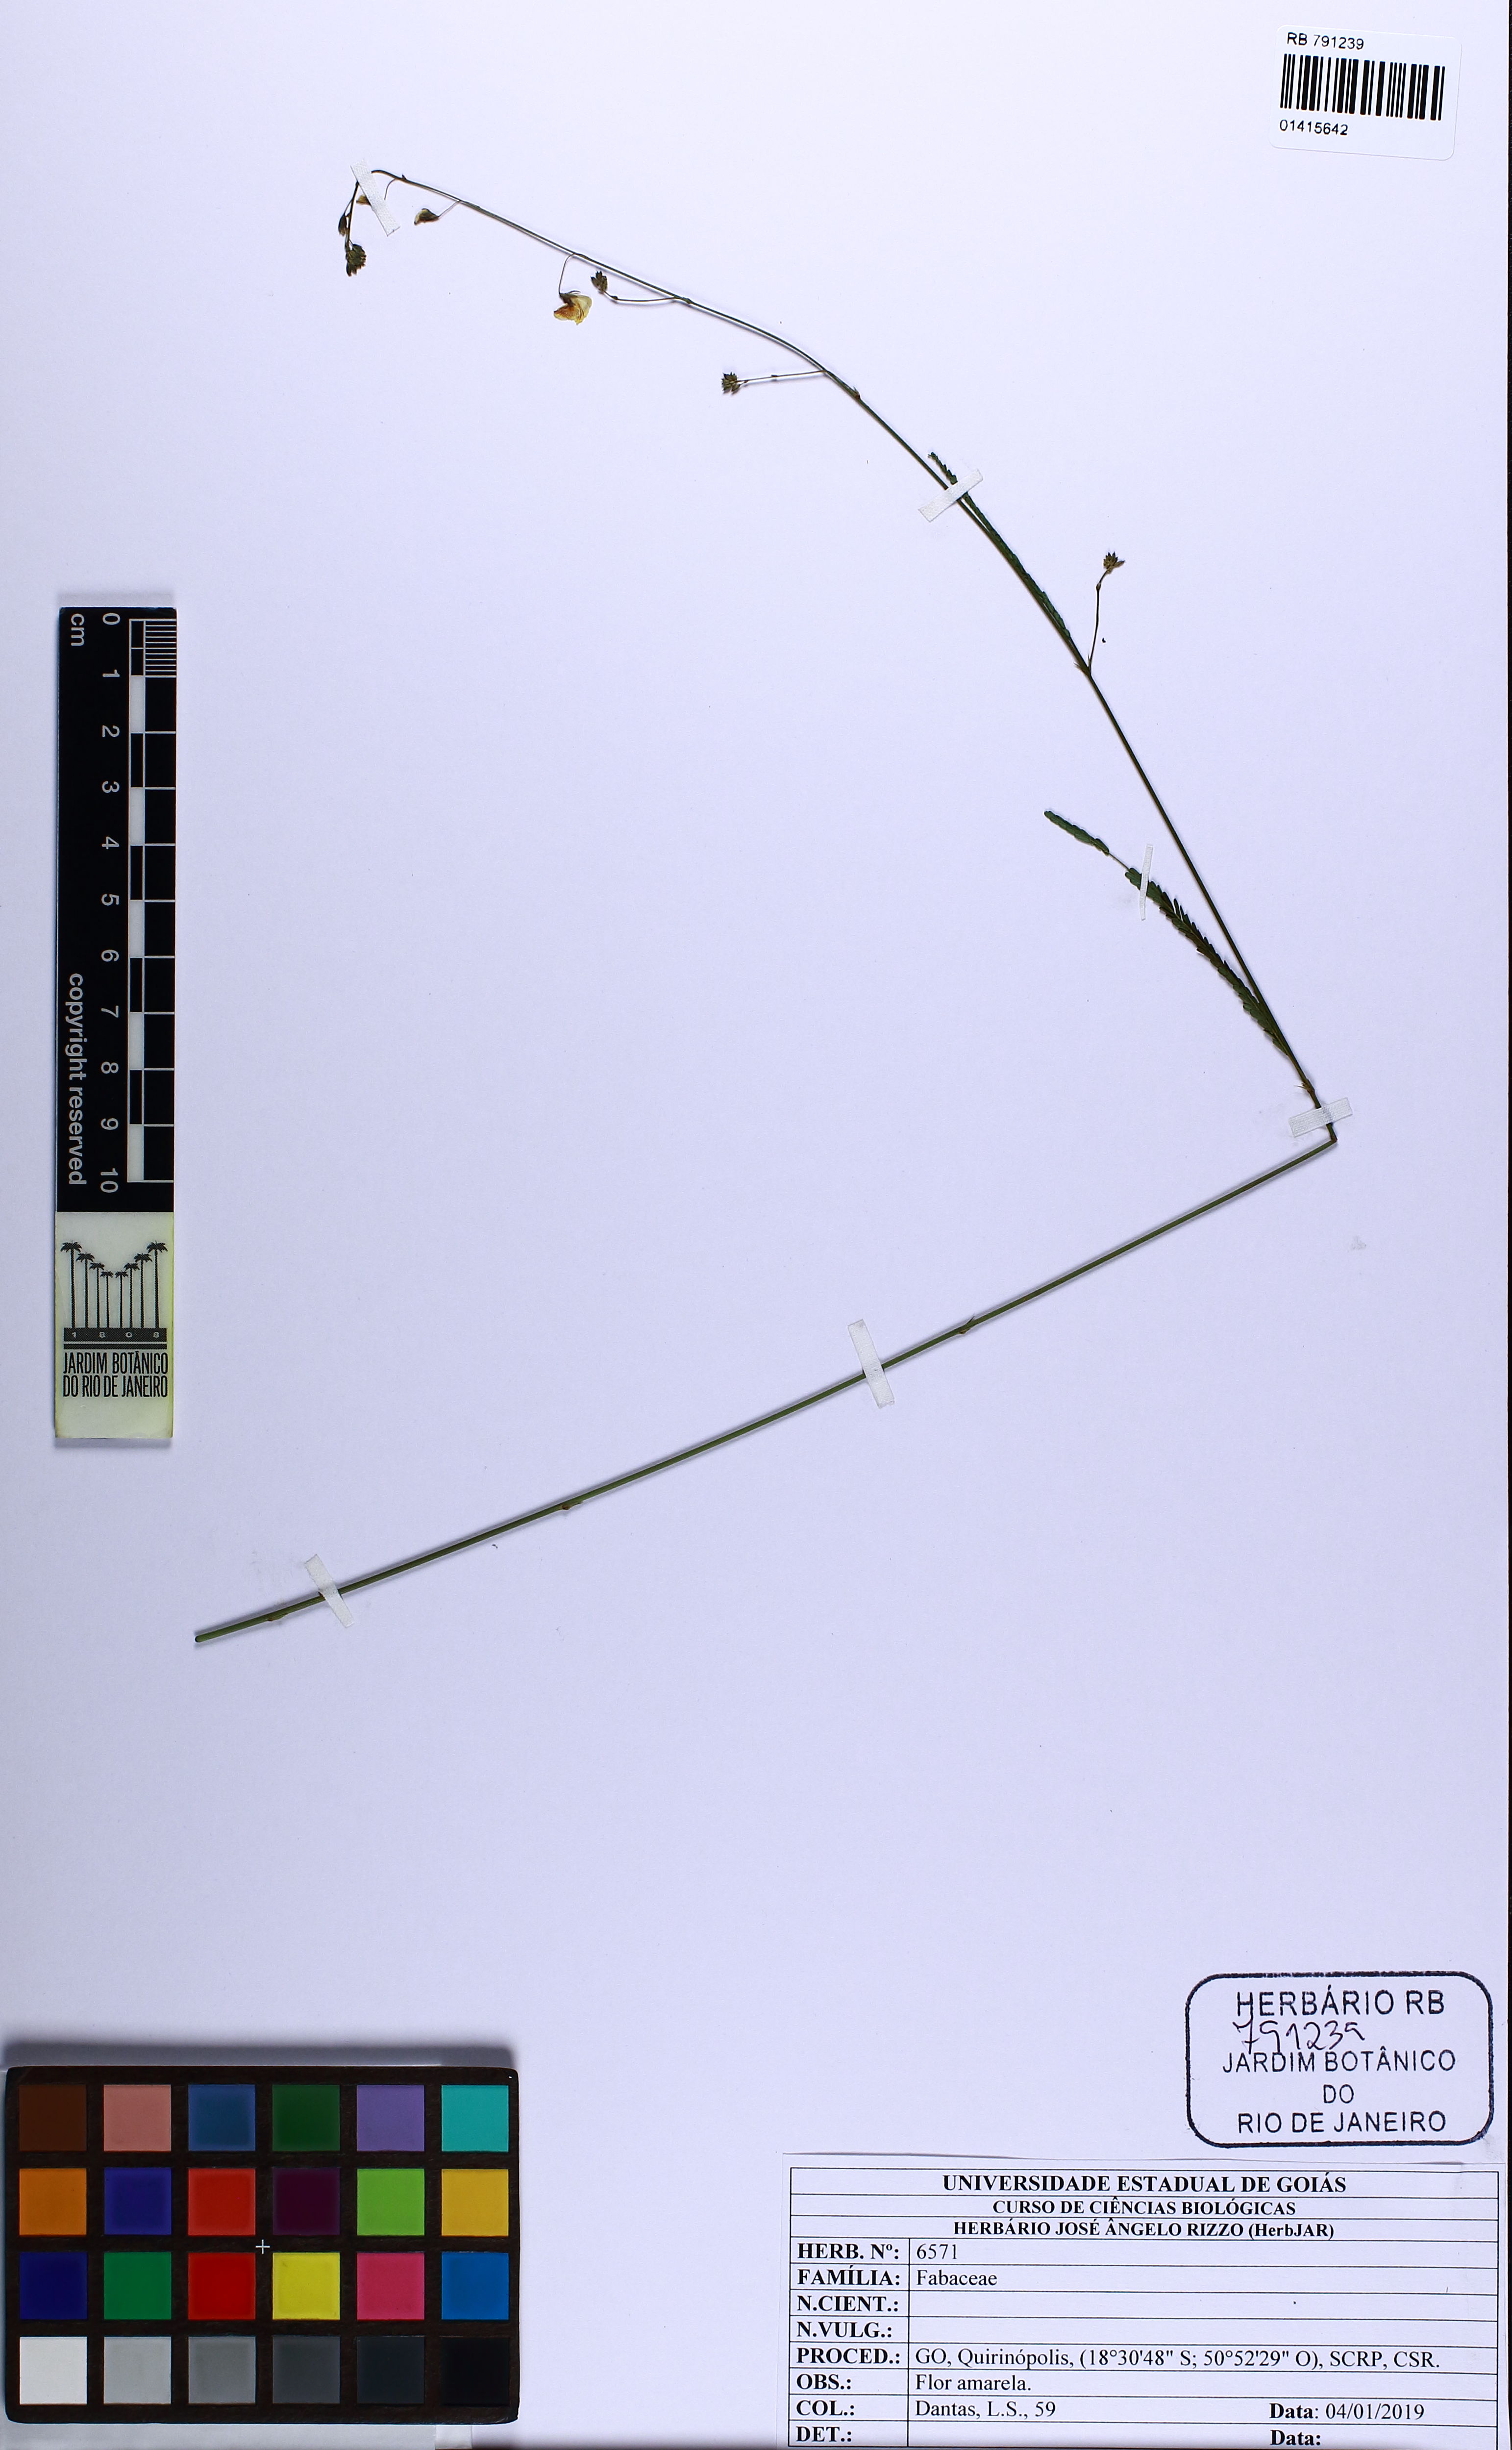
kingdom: Plantae
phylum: Tracheophyta
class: Magnoliopsida
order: Fabales
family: Fabaceae
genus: Aeschynomene
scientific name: Aeschynomene
